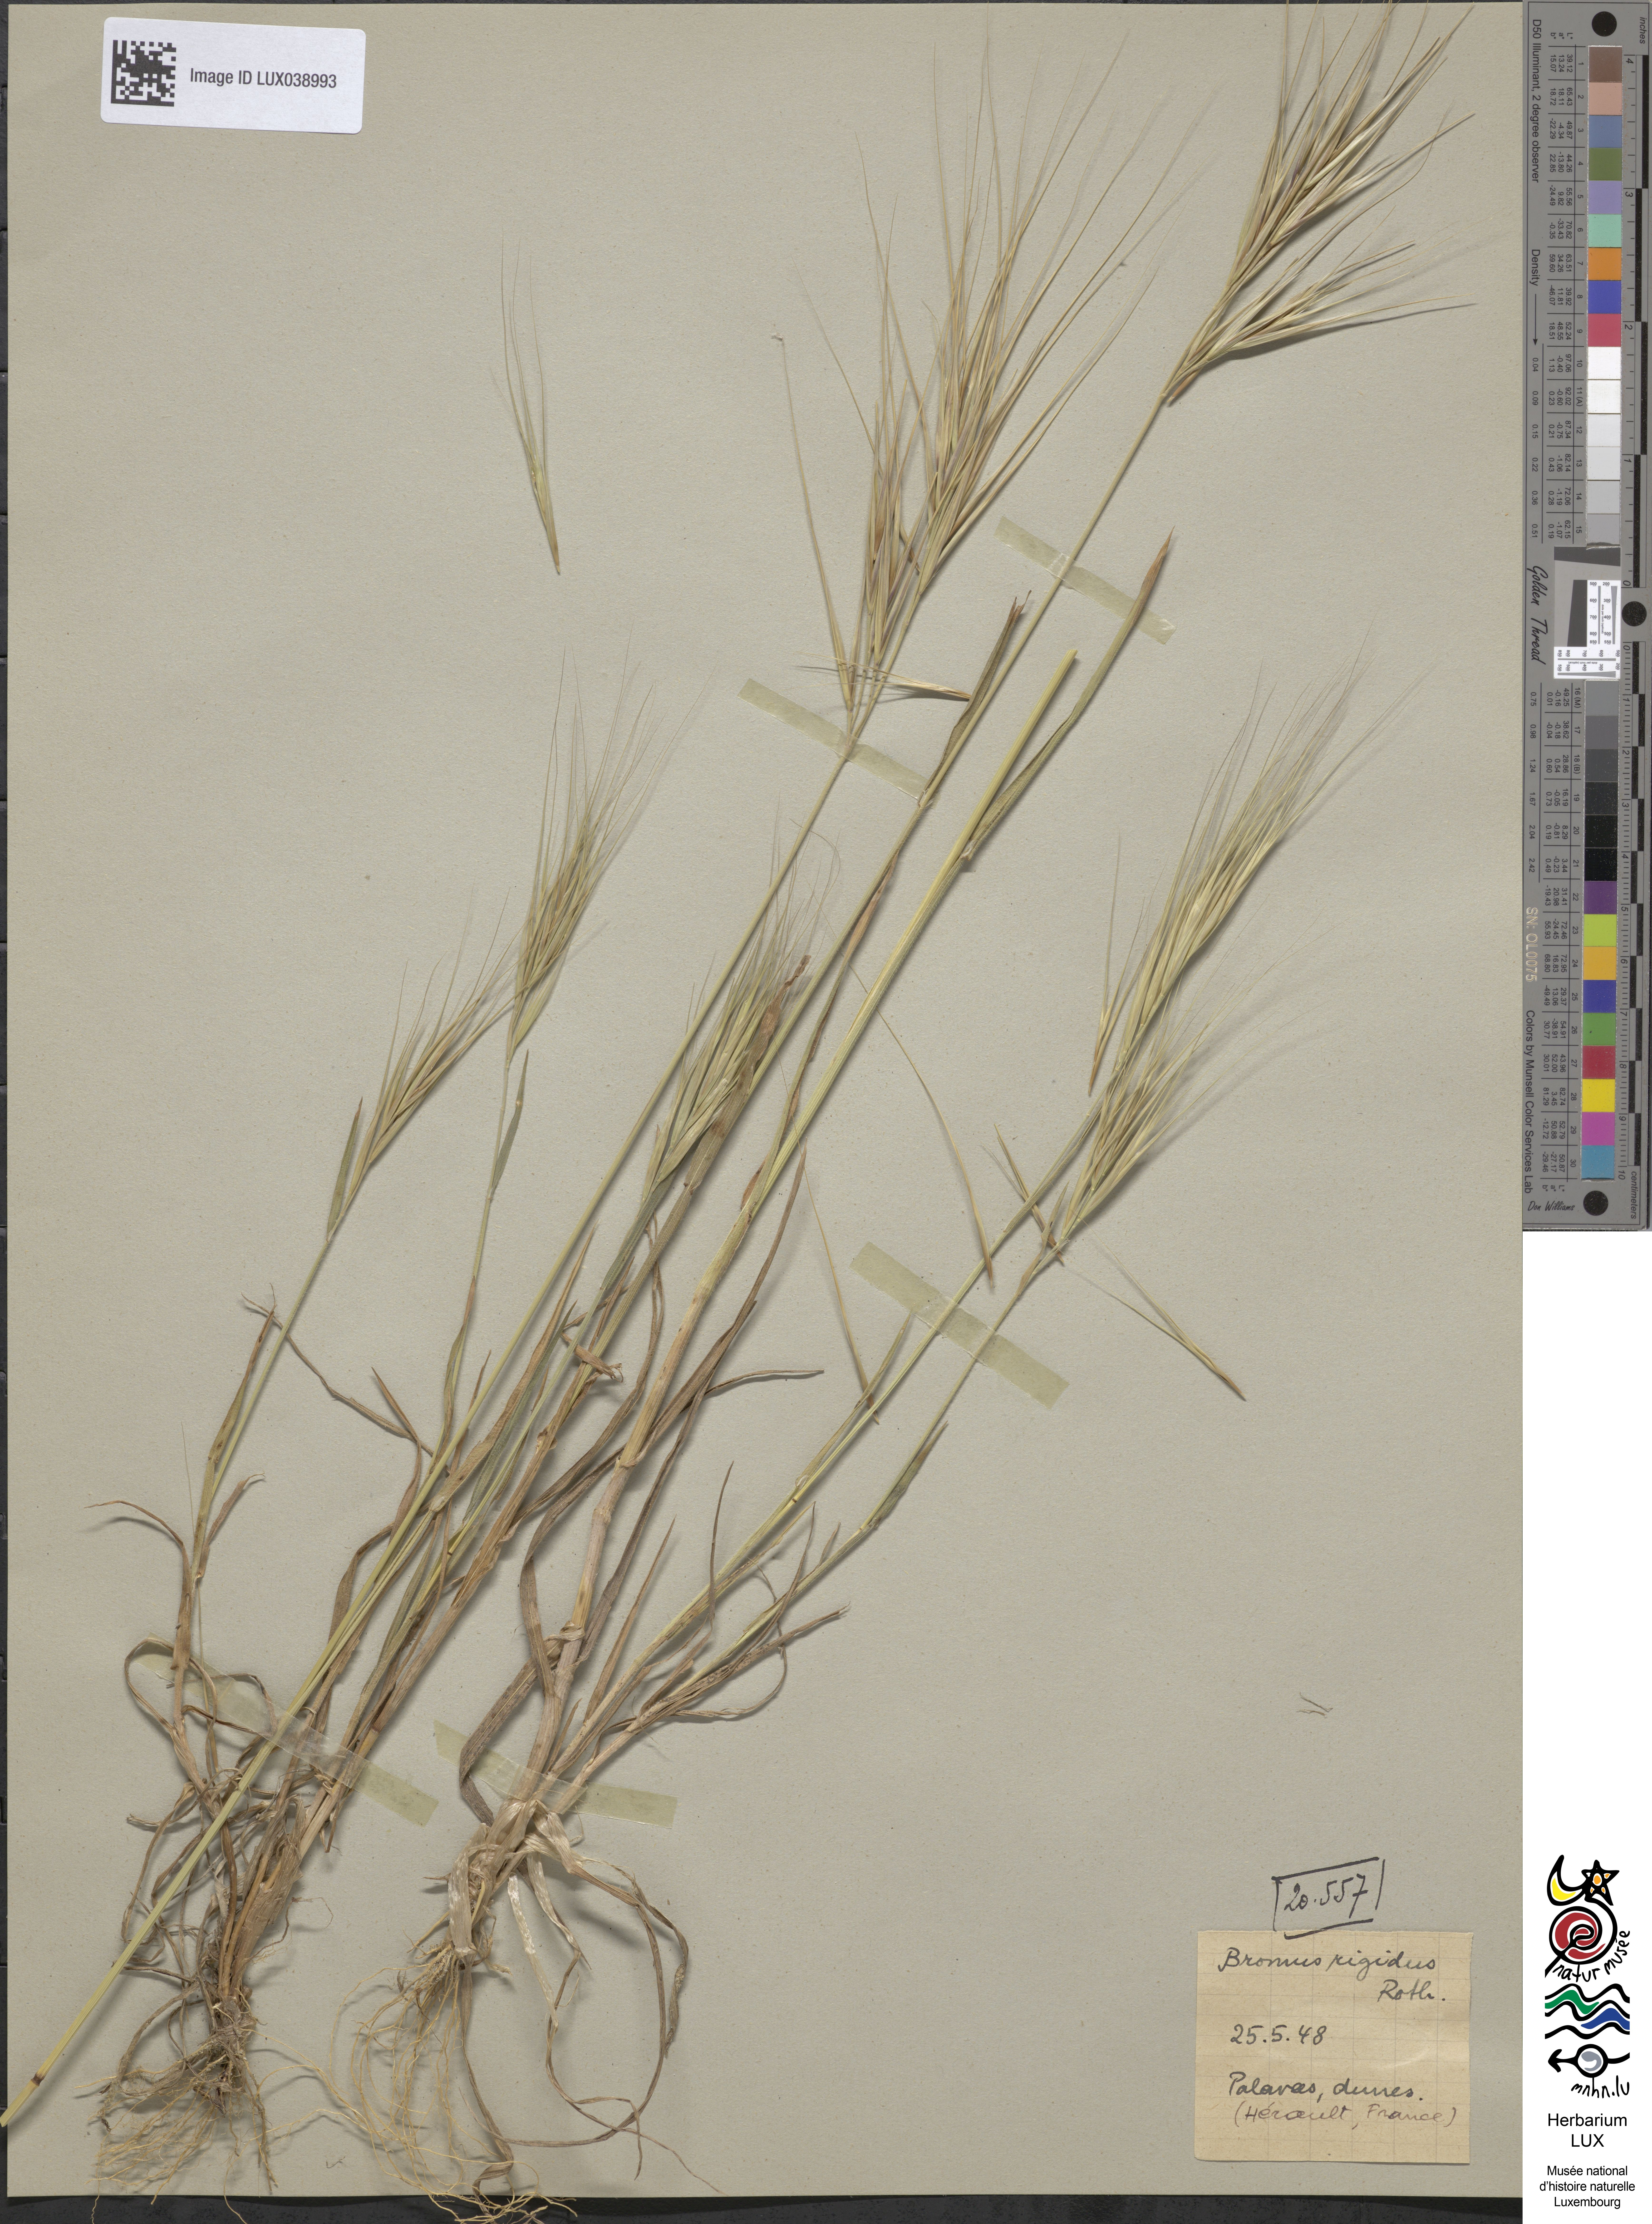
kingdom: Plantae
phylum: Tracheophyta
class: Liliopsida
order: Poales
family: Poaceae
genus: Bromus
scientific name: Bromus rigidus
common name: Ripgut brome
